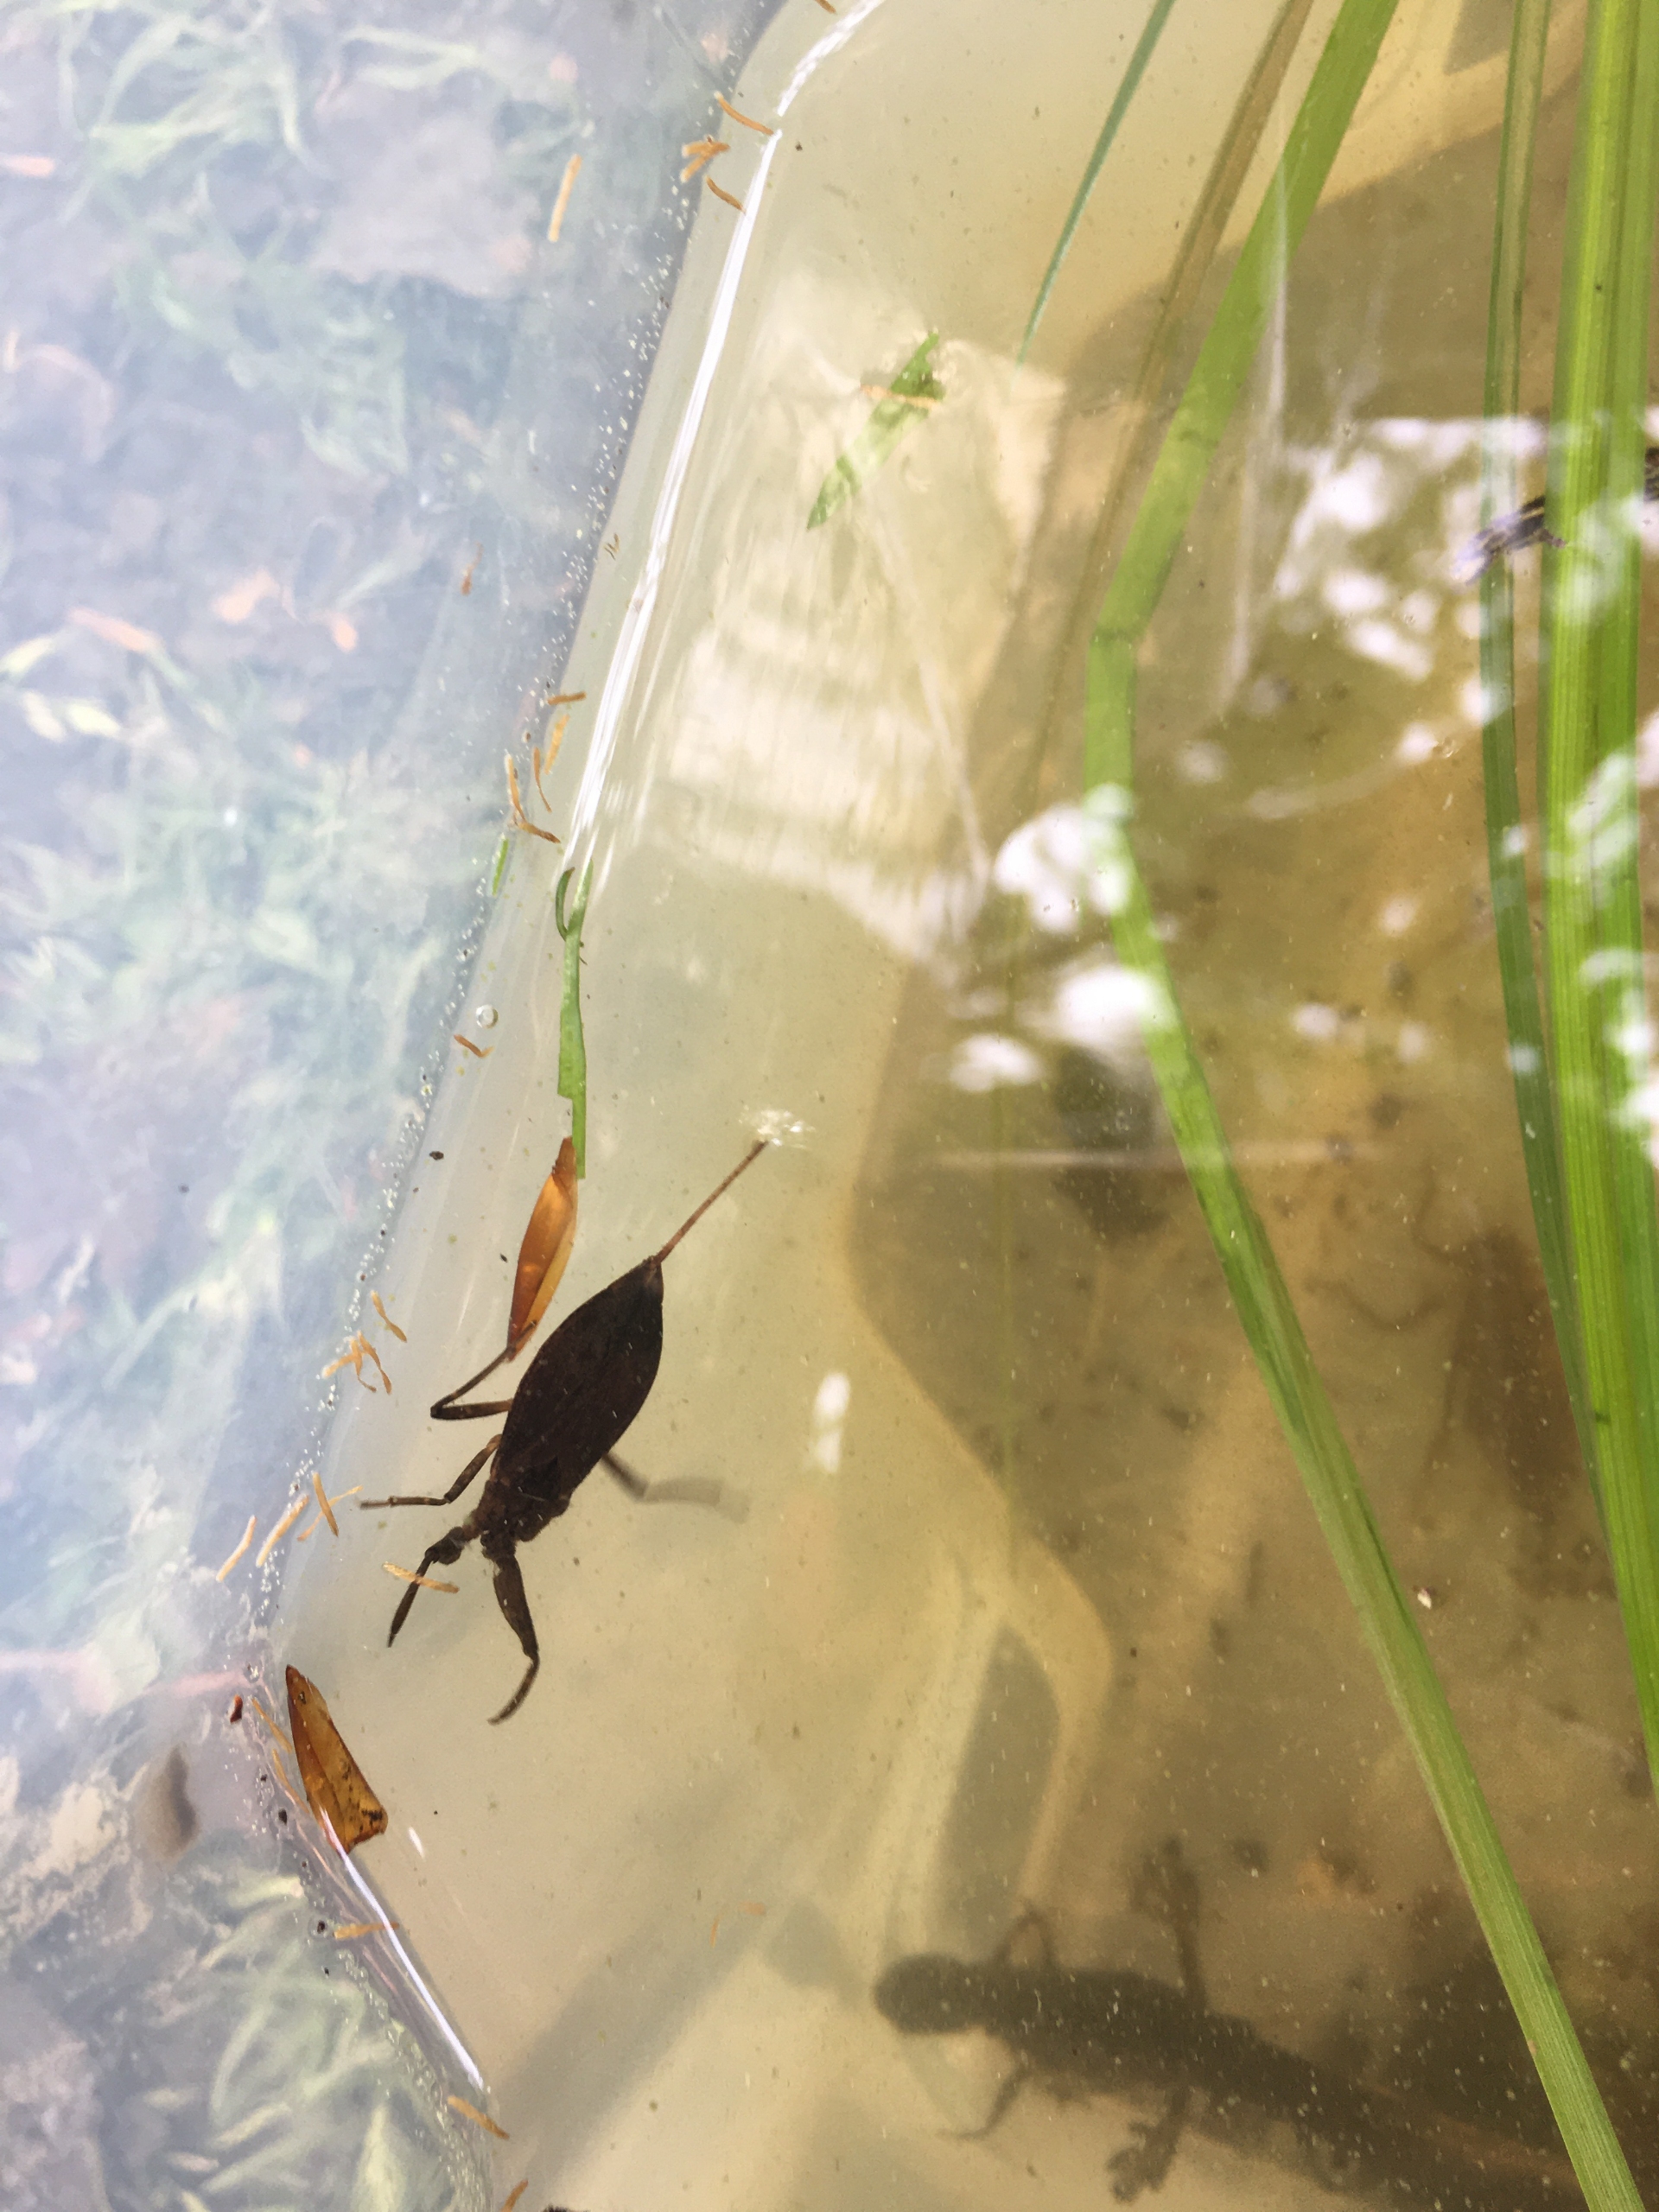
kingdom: Animalia
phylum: Arthropoda
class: Insecta
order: Hemiptera
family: Nepidae
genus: Nepa
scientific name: Nepa cinerea
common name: Skorpiontæge
